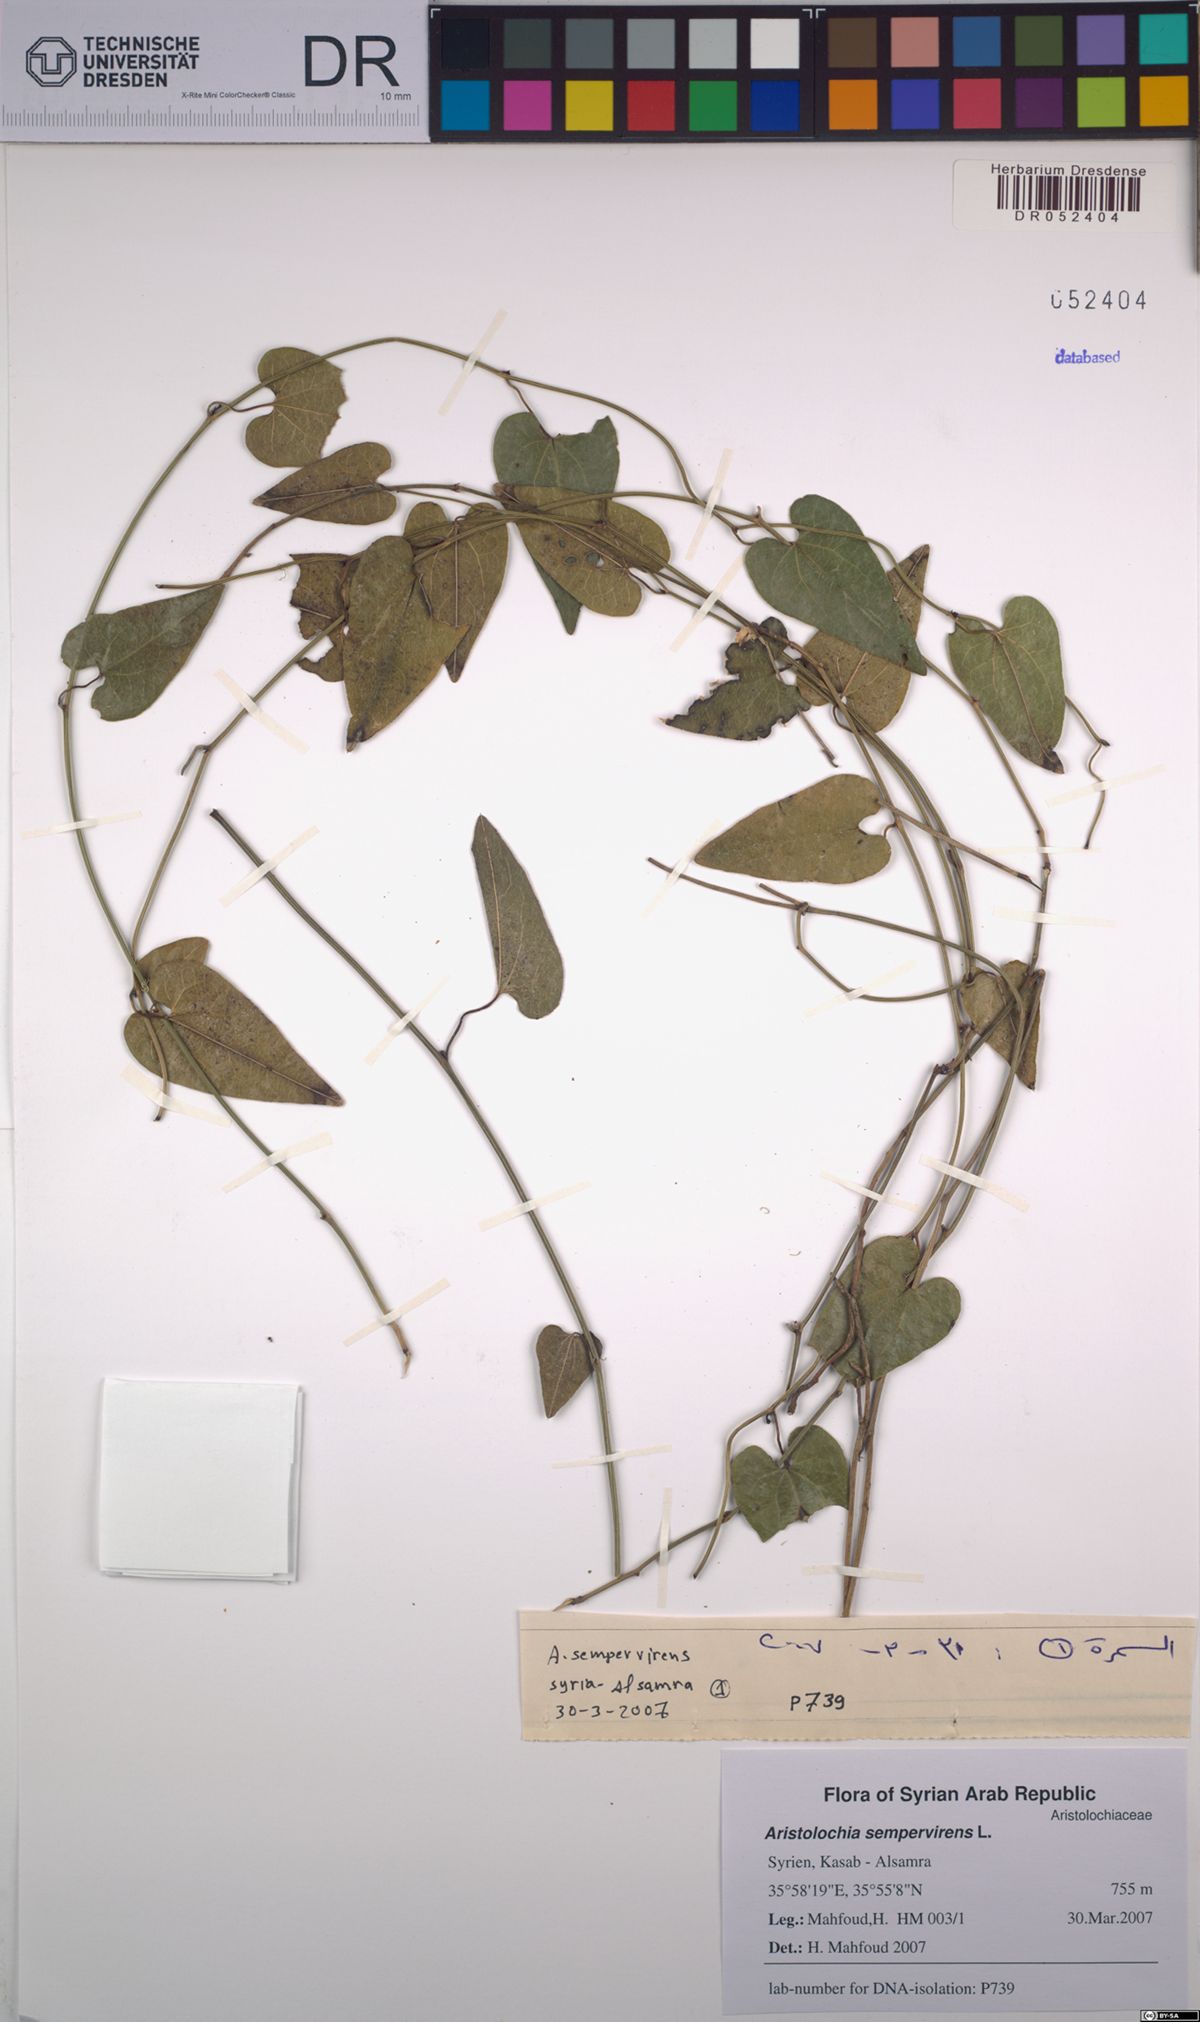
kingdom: Plantae
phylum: Tracheophyta
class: Magnoliopsida
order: Piperales
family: Aristolochiaceae
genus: Aristolochia
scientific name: Aristolochia sempervirens
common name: Long birthwort
